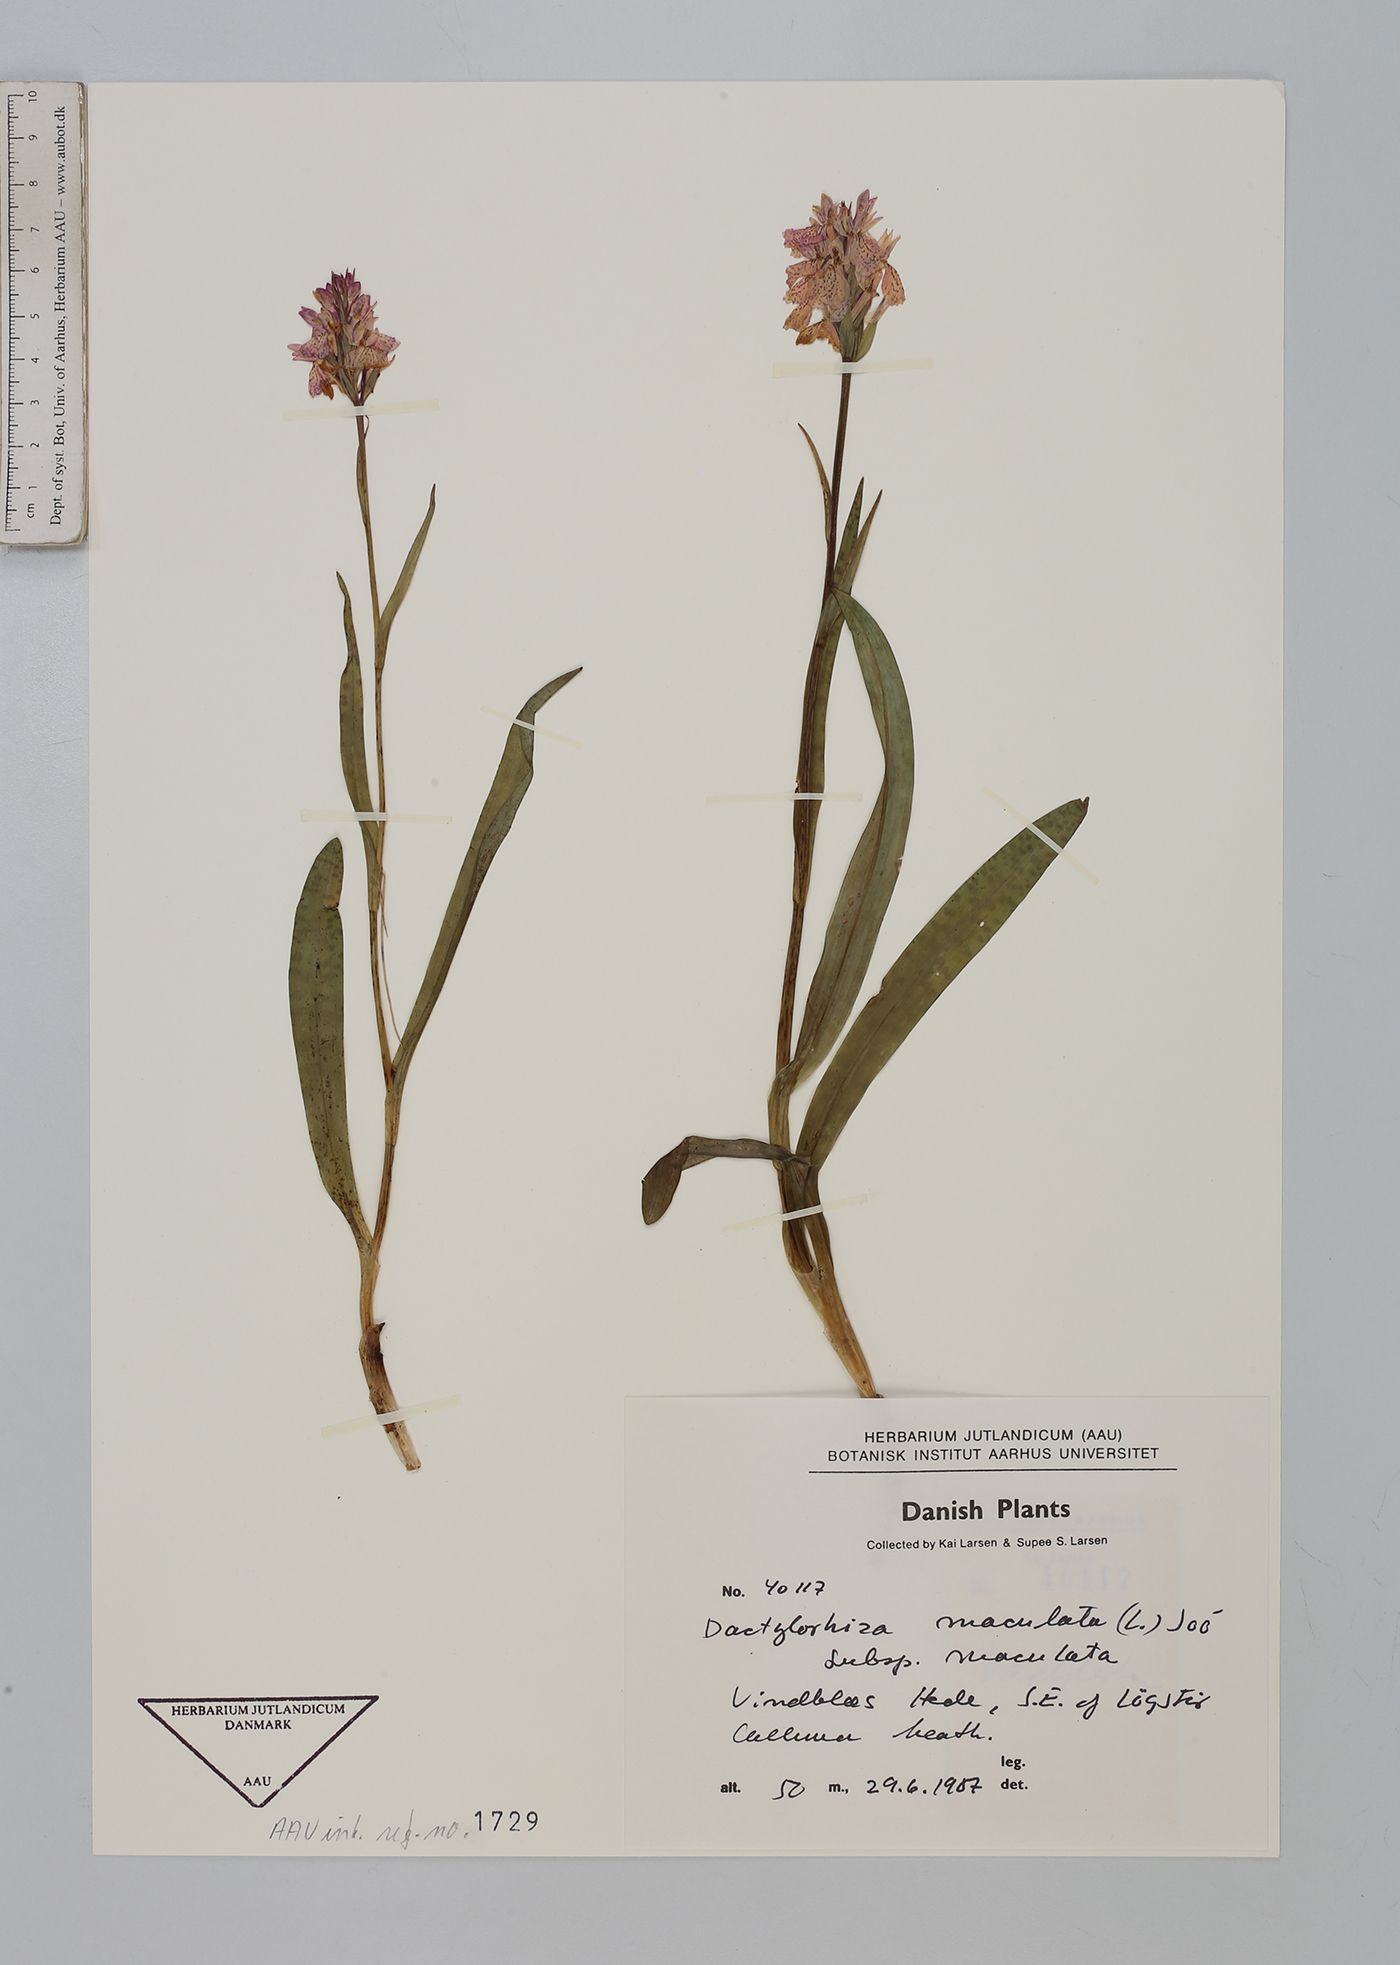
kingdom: Plantae
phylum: Tracheophyta
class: Liliopsida
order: Asparagales
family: Orchidaceae
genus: Dactylorhiza
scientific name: Dactylorhiza maculata
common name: Heath spotted-orchid
